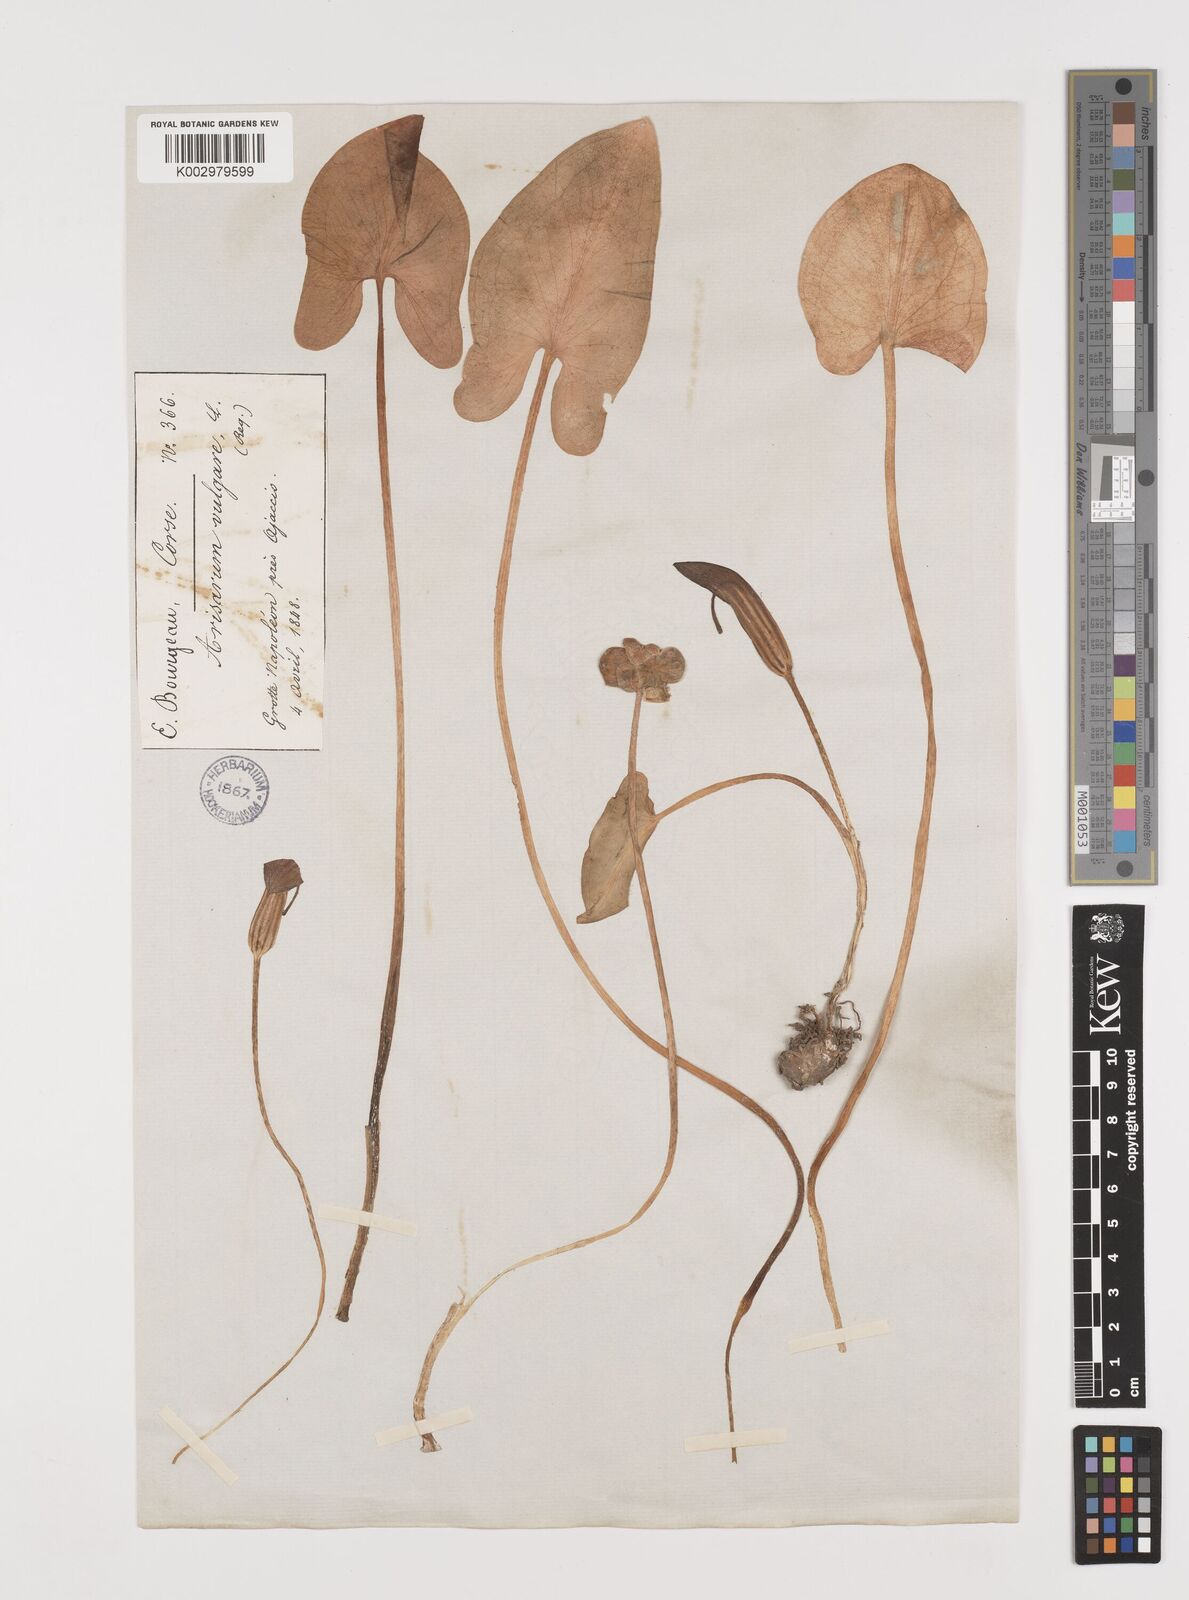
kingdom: Plantae
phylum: Tracheophyta
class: Liliopsida
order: Alismatales
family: Araceae
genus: Arisarum
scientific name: Arisarum vulgare
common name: Common arisarum
